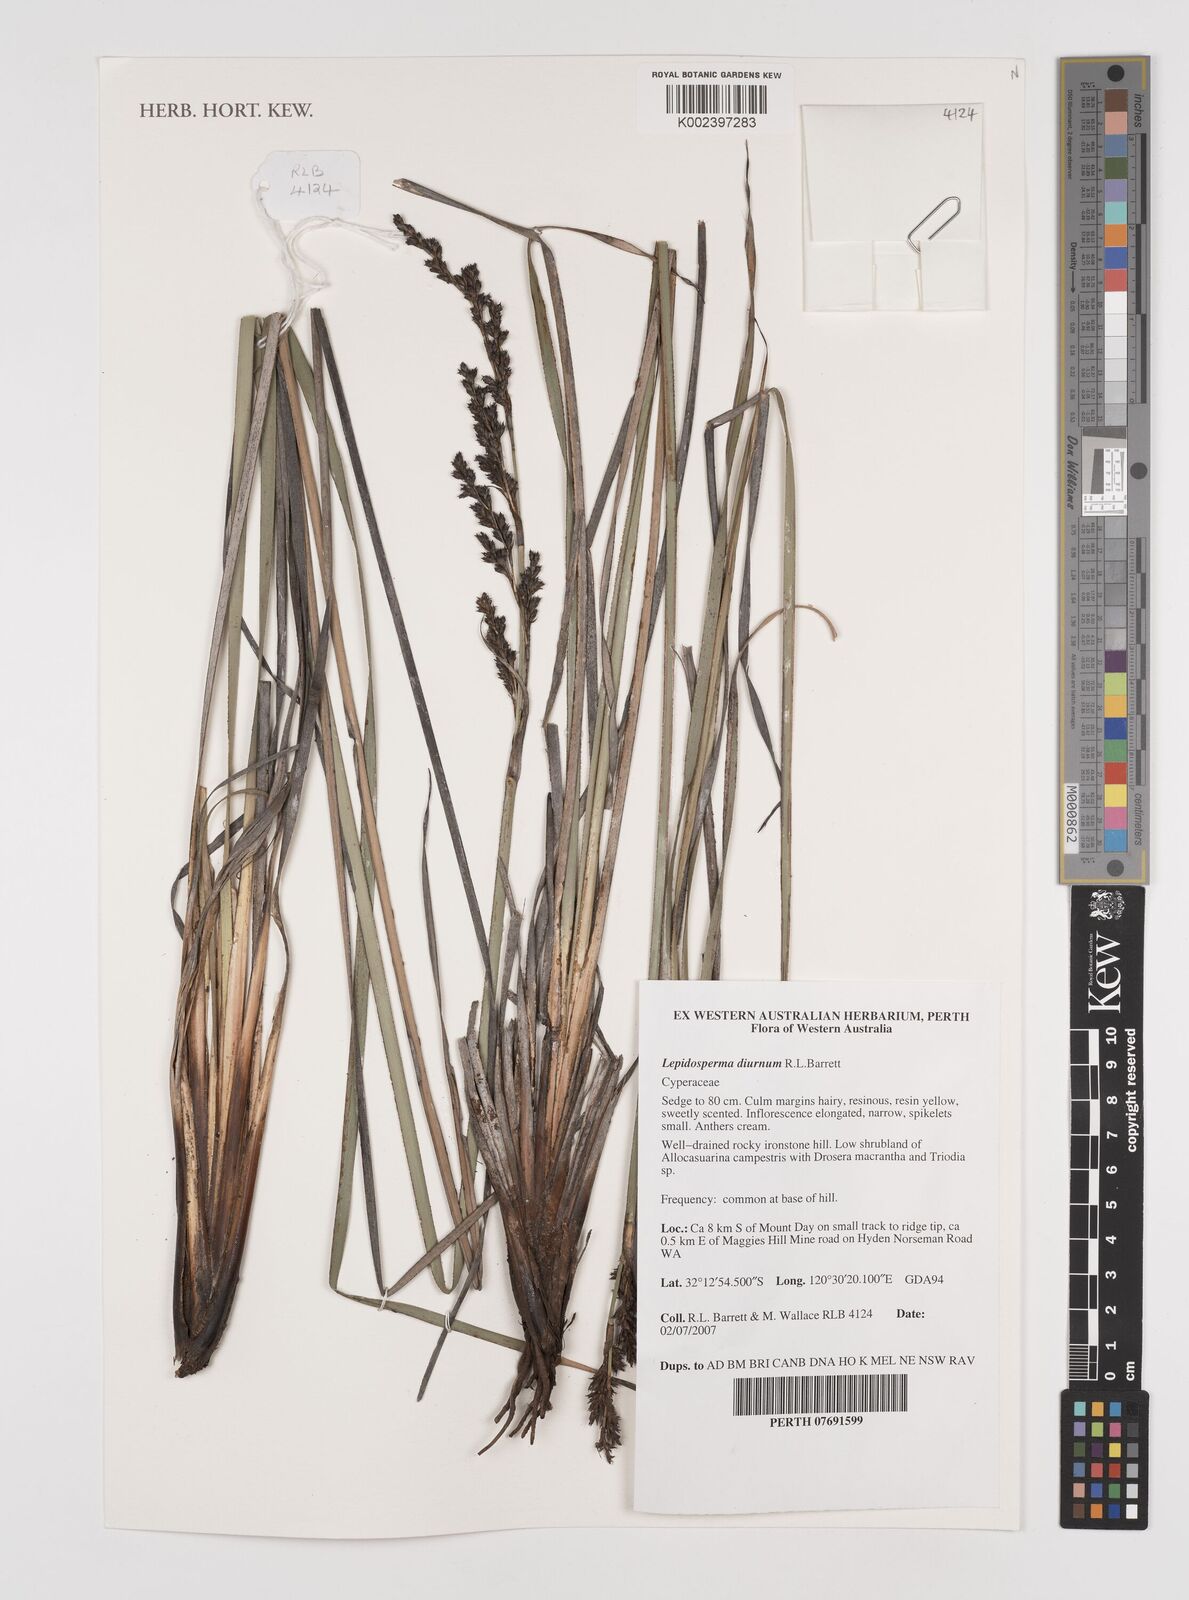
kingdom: Plantae
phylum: Tracheophyta
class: Liliopsida
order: Poales
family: Cyperaceae
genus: Lepidosperma
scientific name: Lepidosperma diurnum
